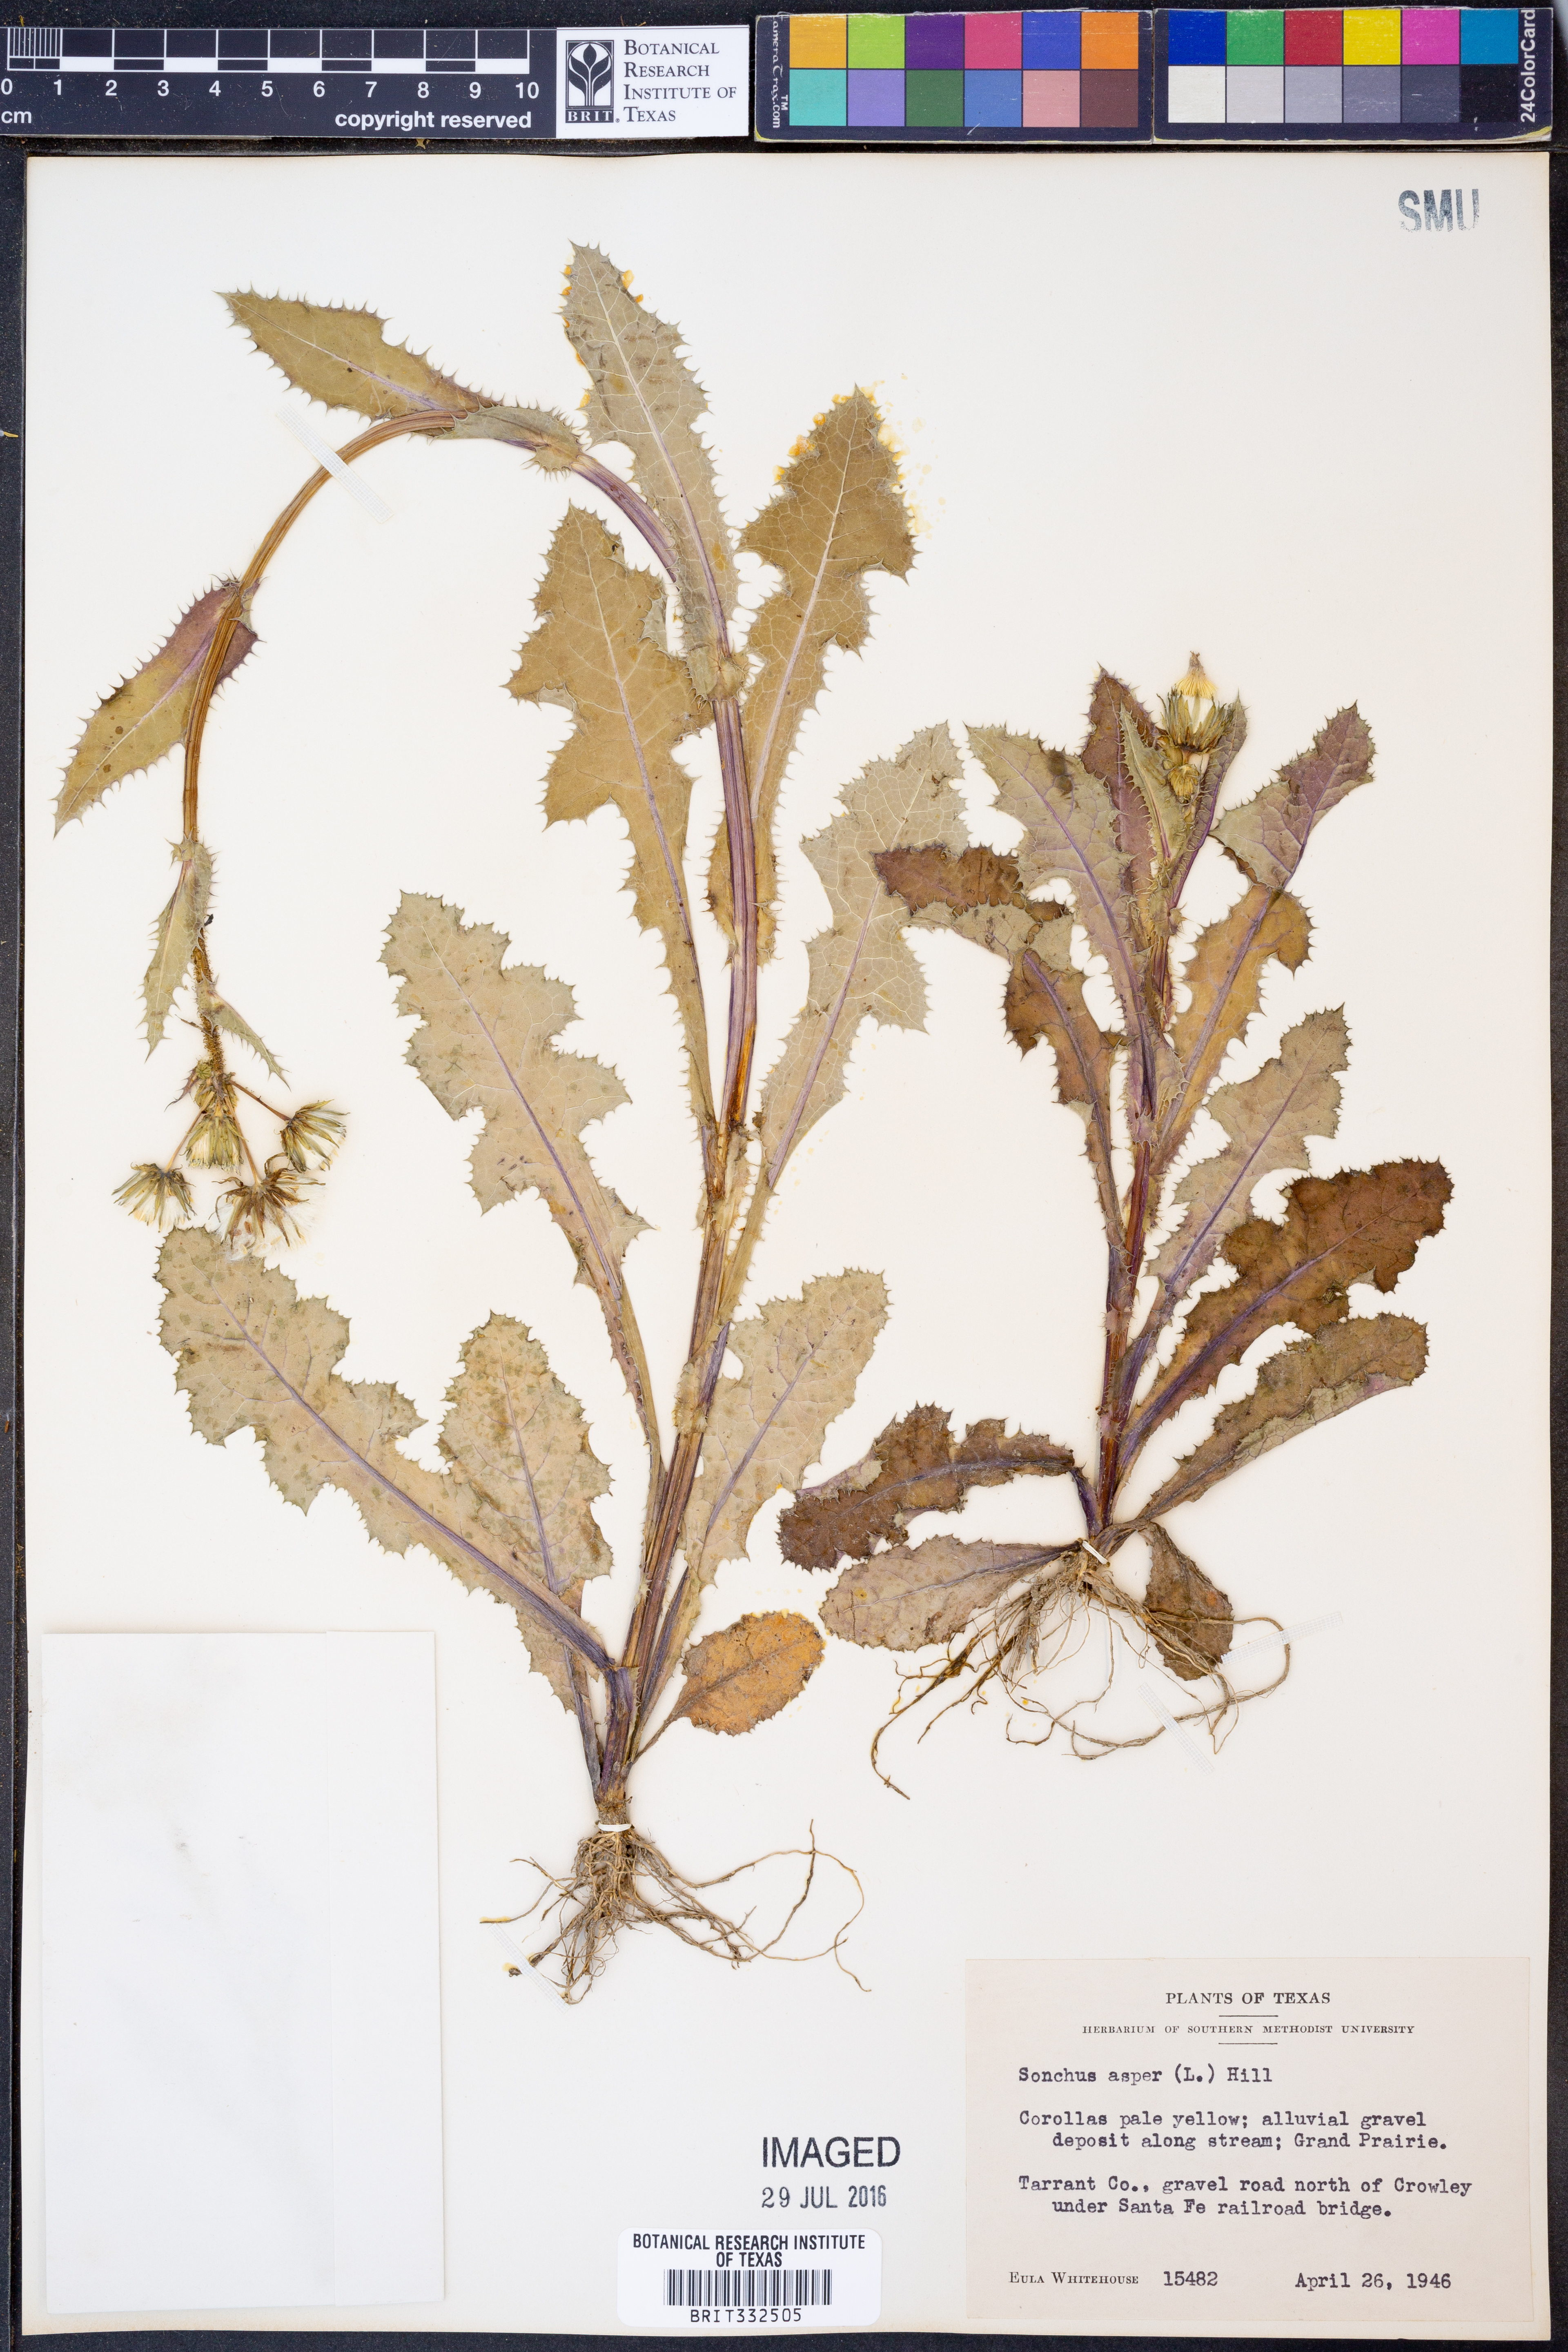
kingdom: Plantae
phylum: Tracheophyta
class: Magnoliopsida
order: Asterales
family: Asteraceae
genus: Sonchus
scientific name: Sonchus asper
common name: Prickly sow-thistle
